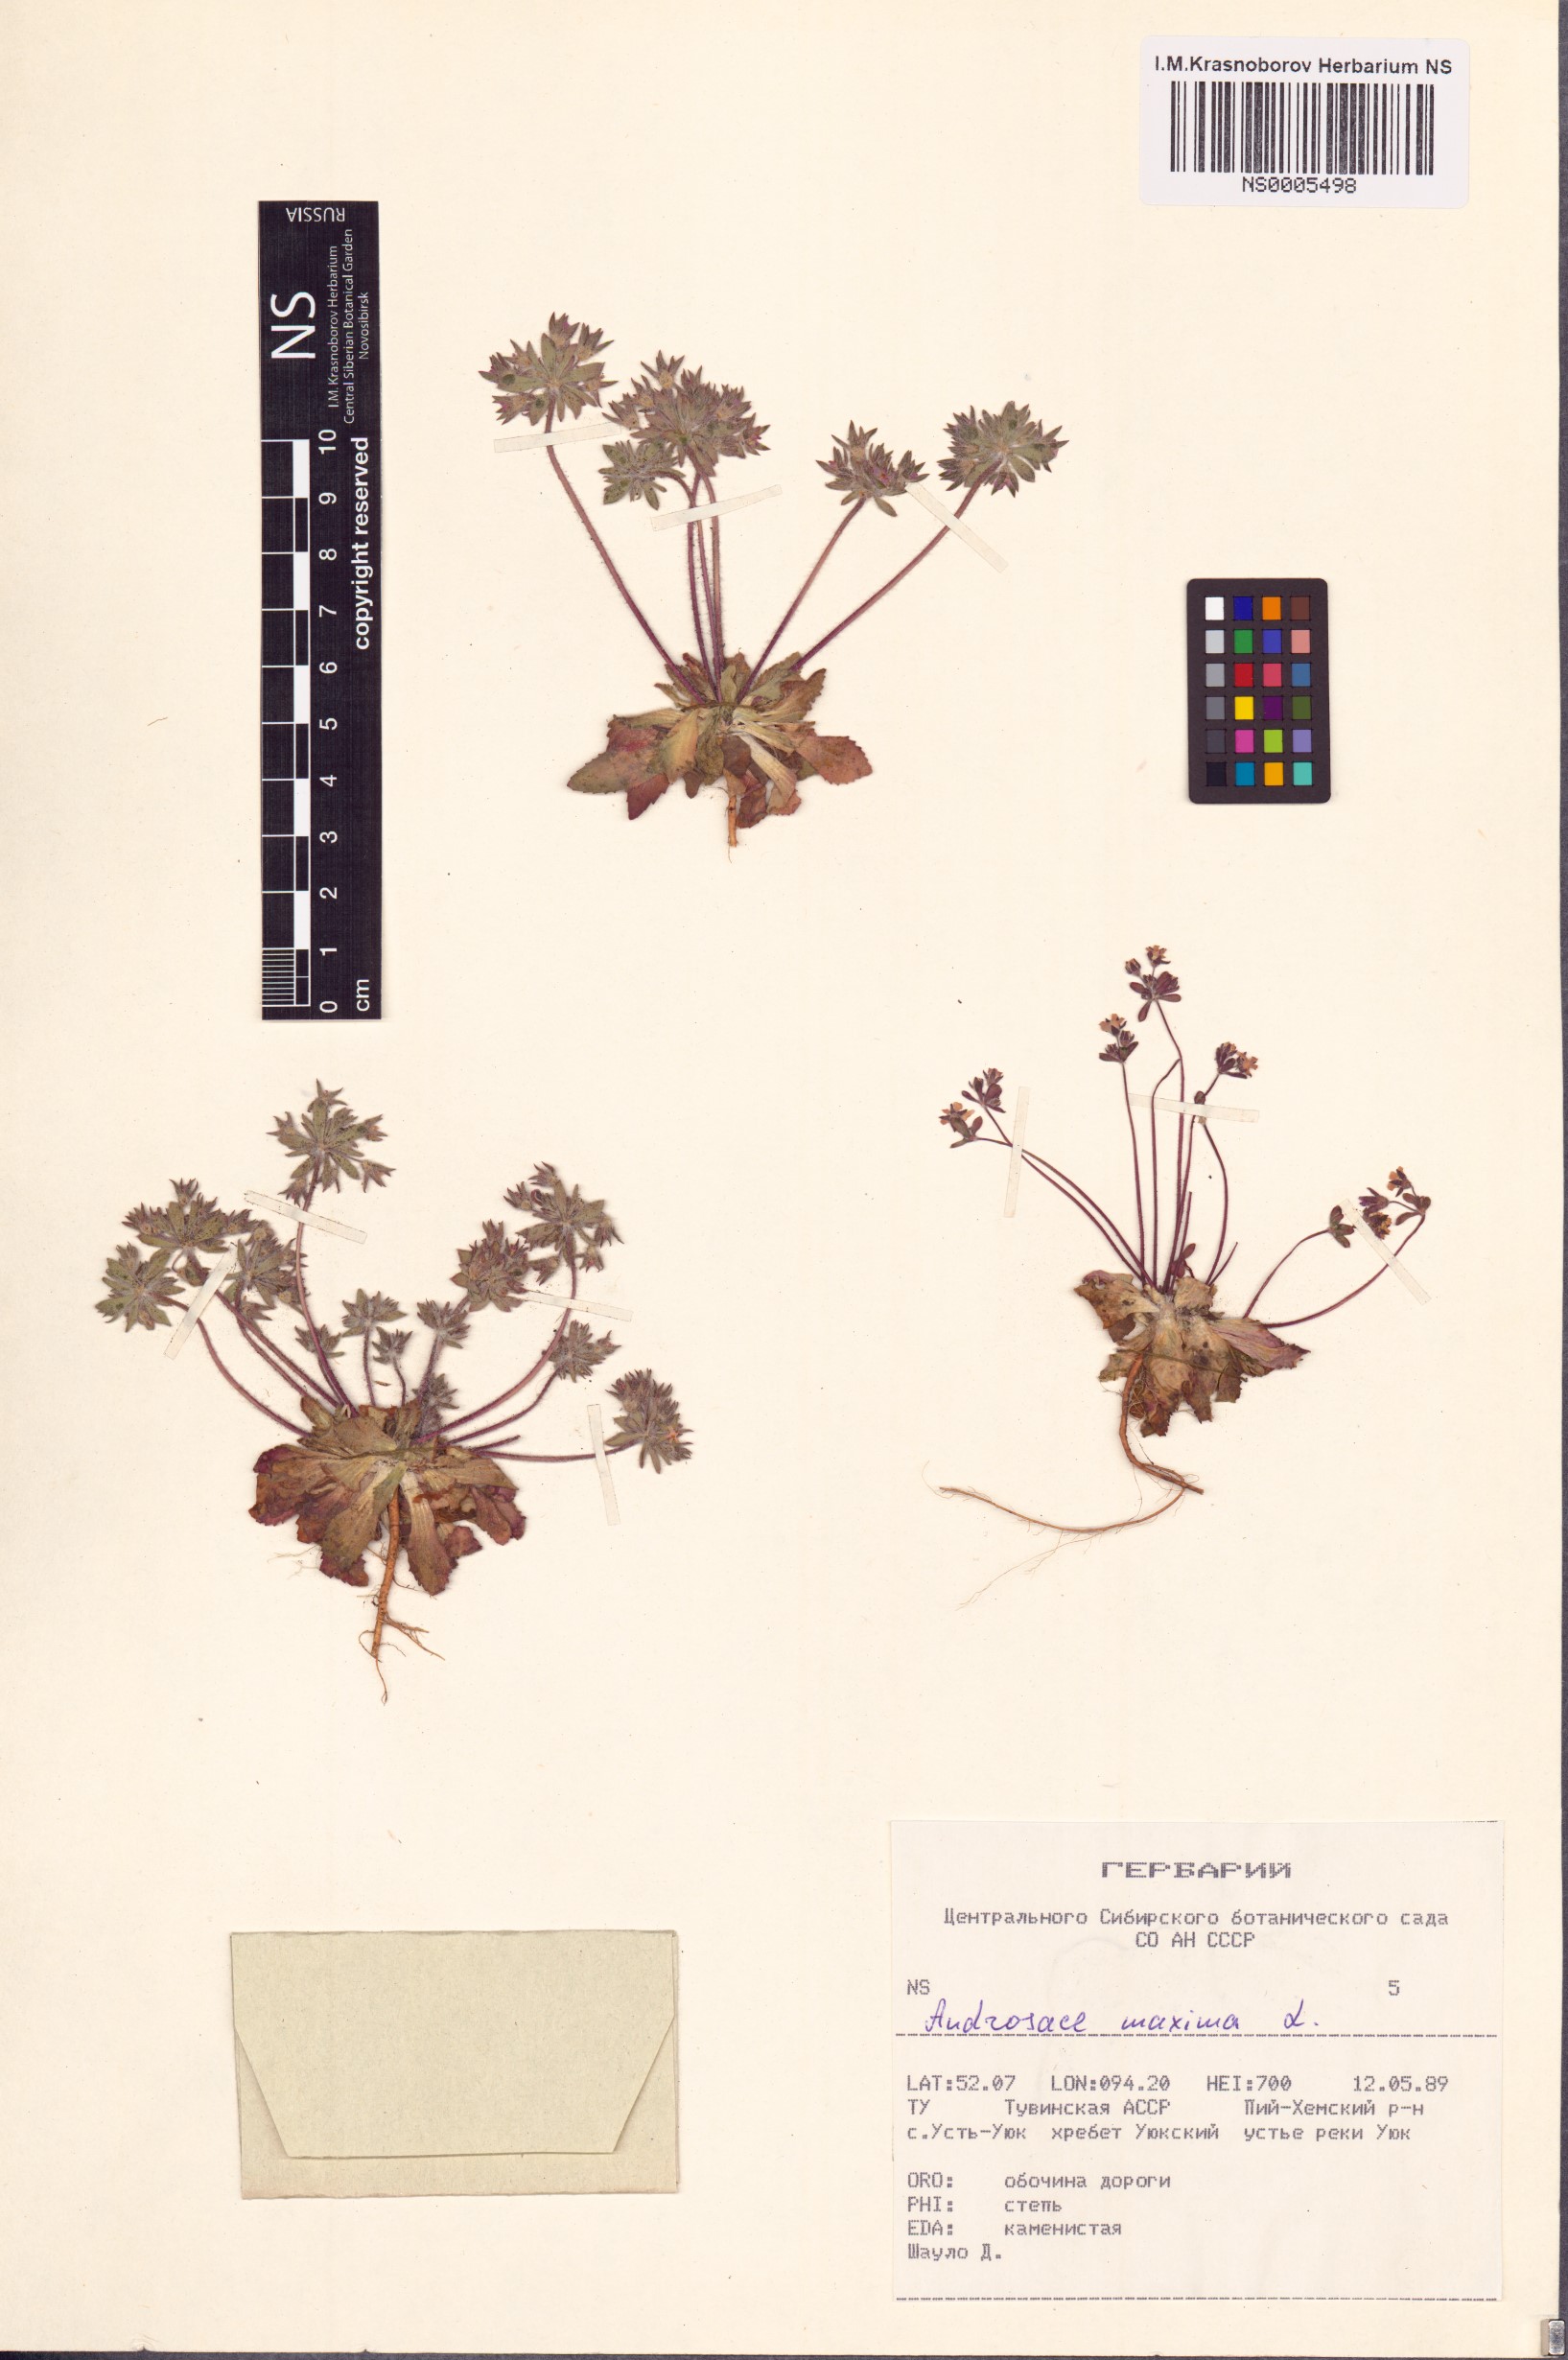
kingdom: Plantae
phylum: Tracheophyta
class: Magnoliopsida
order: Ericales
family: Primulaceae
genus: Androsace
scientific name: Androsace maxima
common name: Annual androsace
